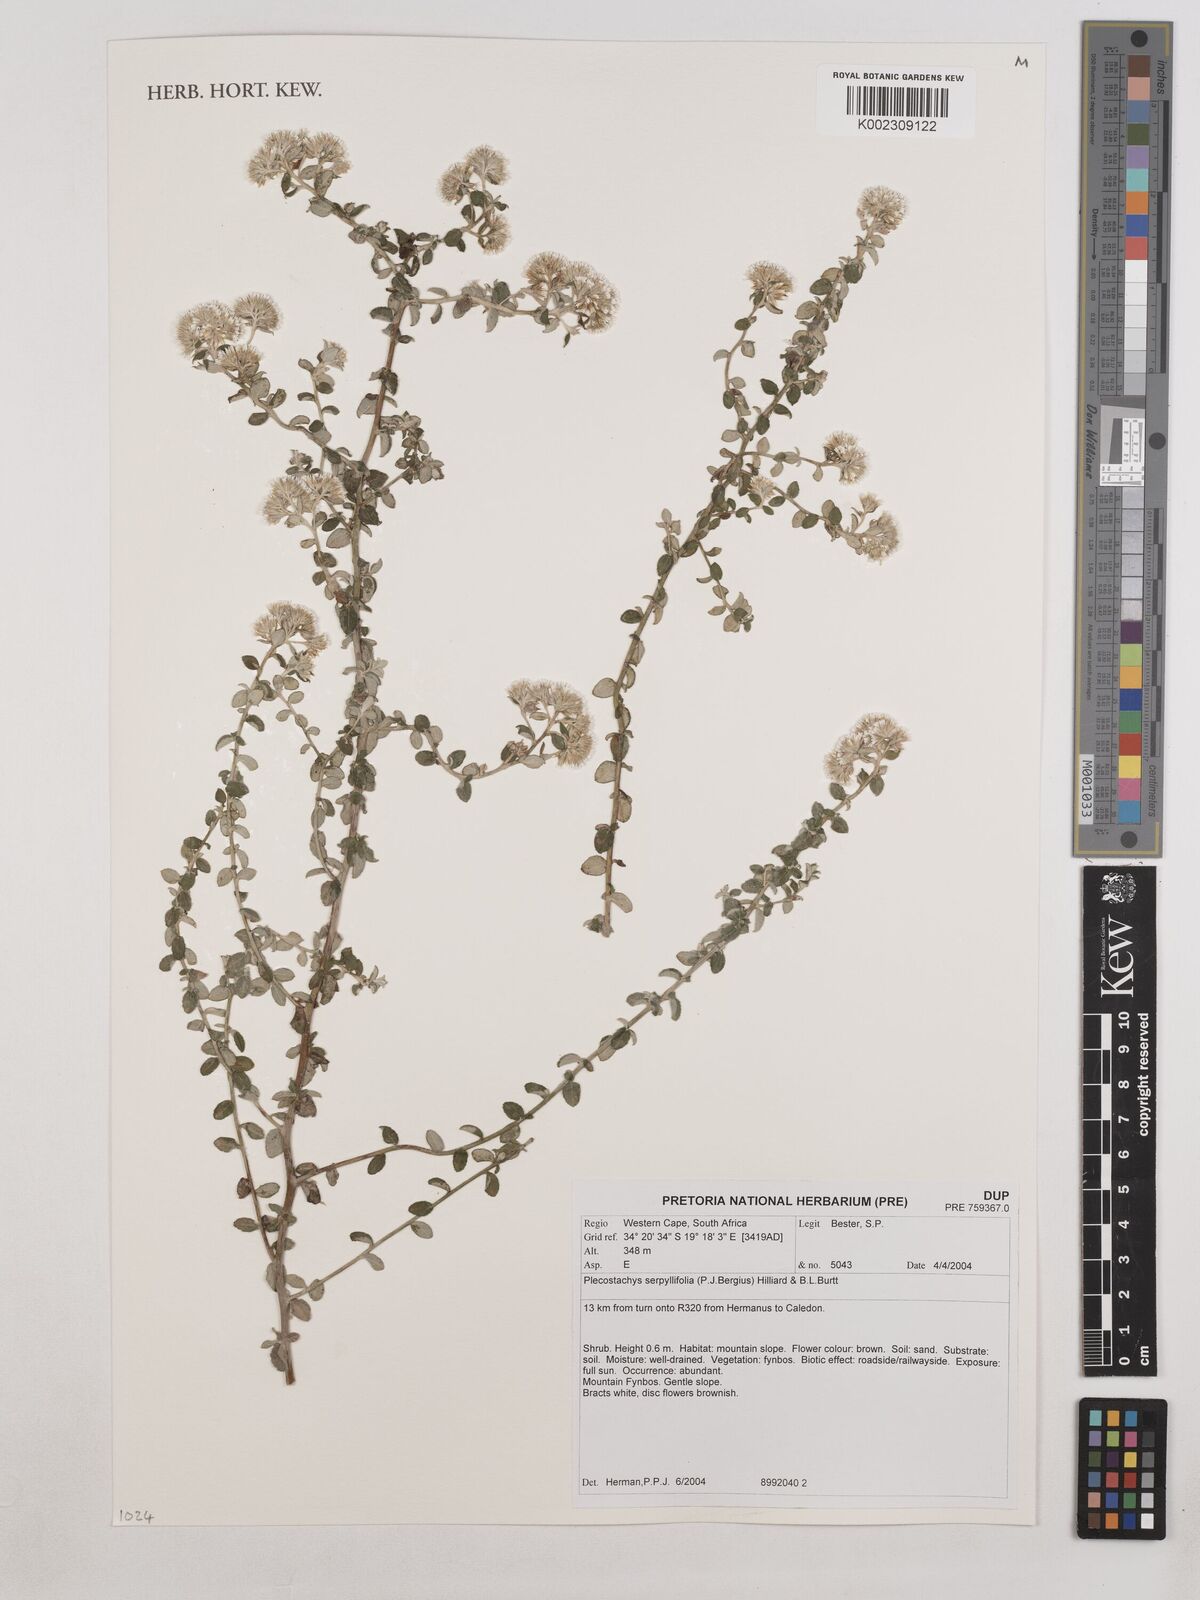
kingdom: Plantae
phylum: Tracheophyta
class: Magnoliopsida
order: Asterales
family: Asteraceae
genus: Plecostachys
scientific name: Plecostachys serpyllifolia
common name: Petite licorice
